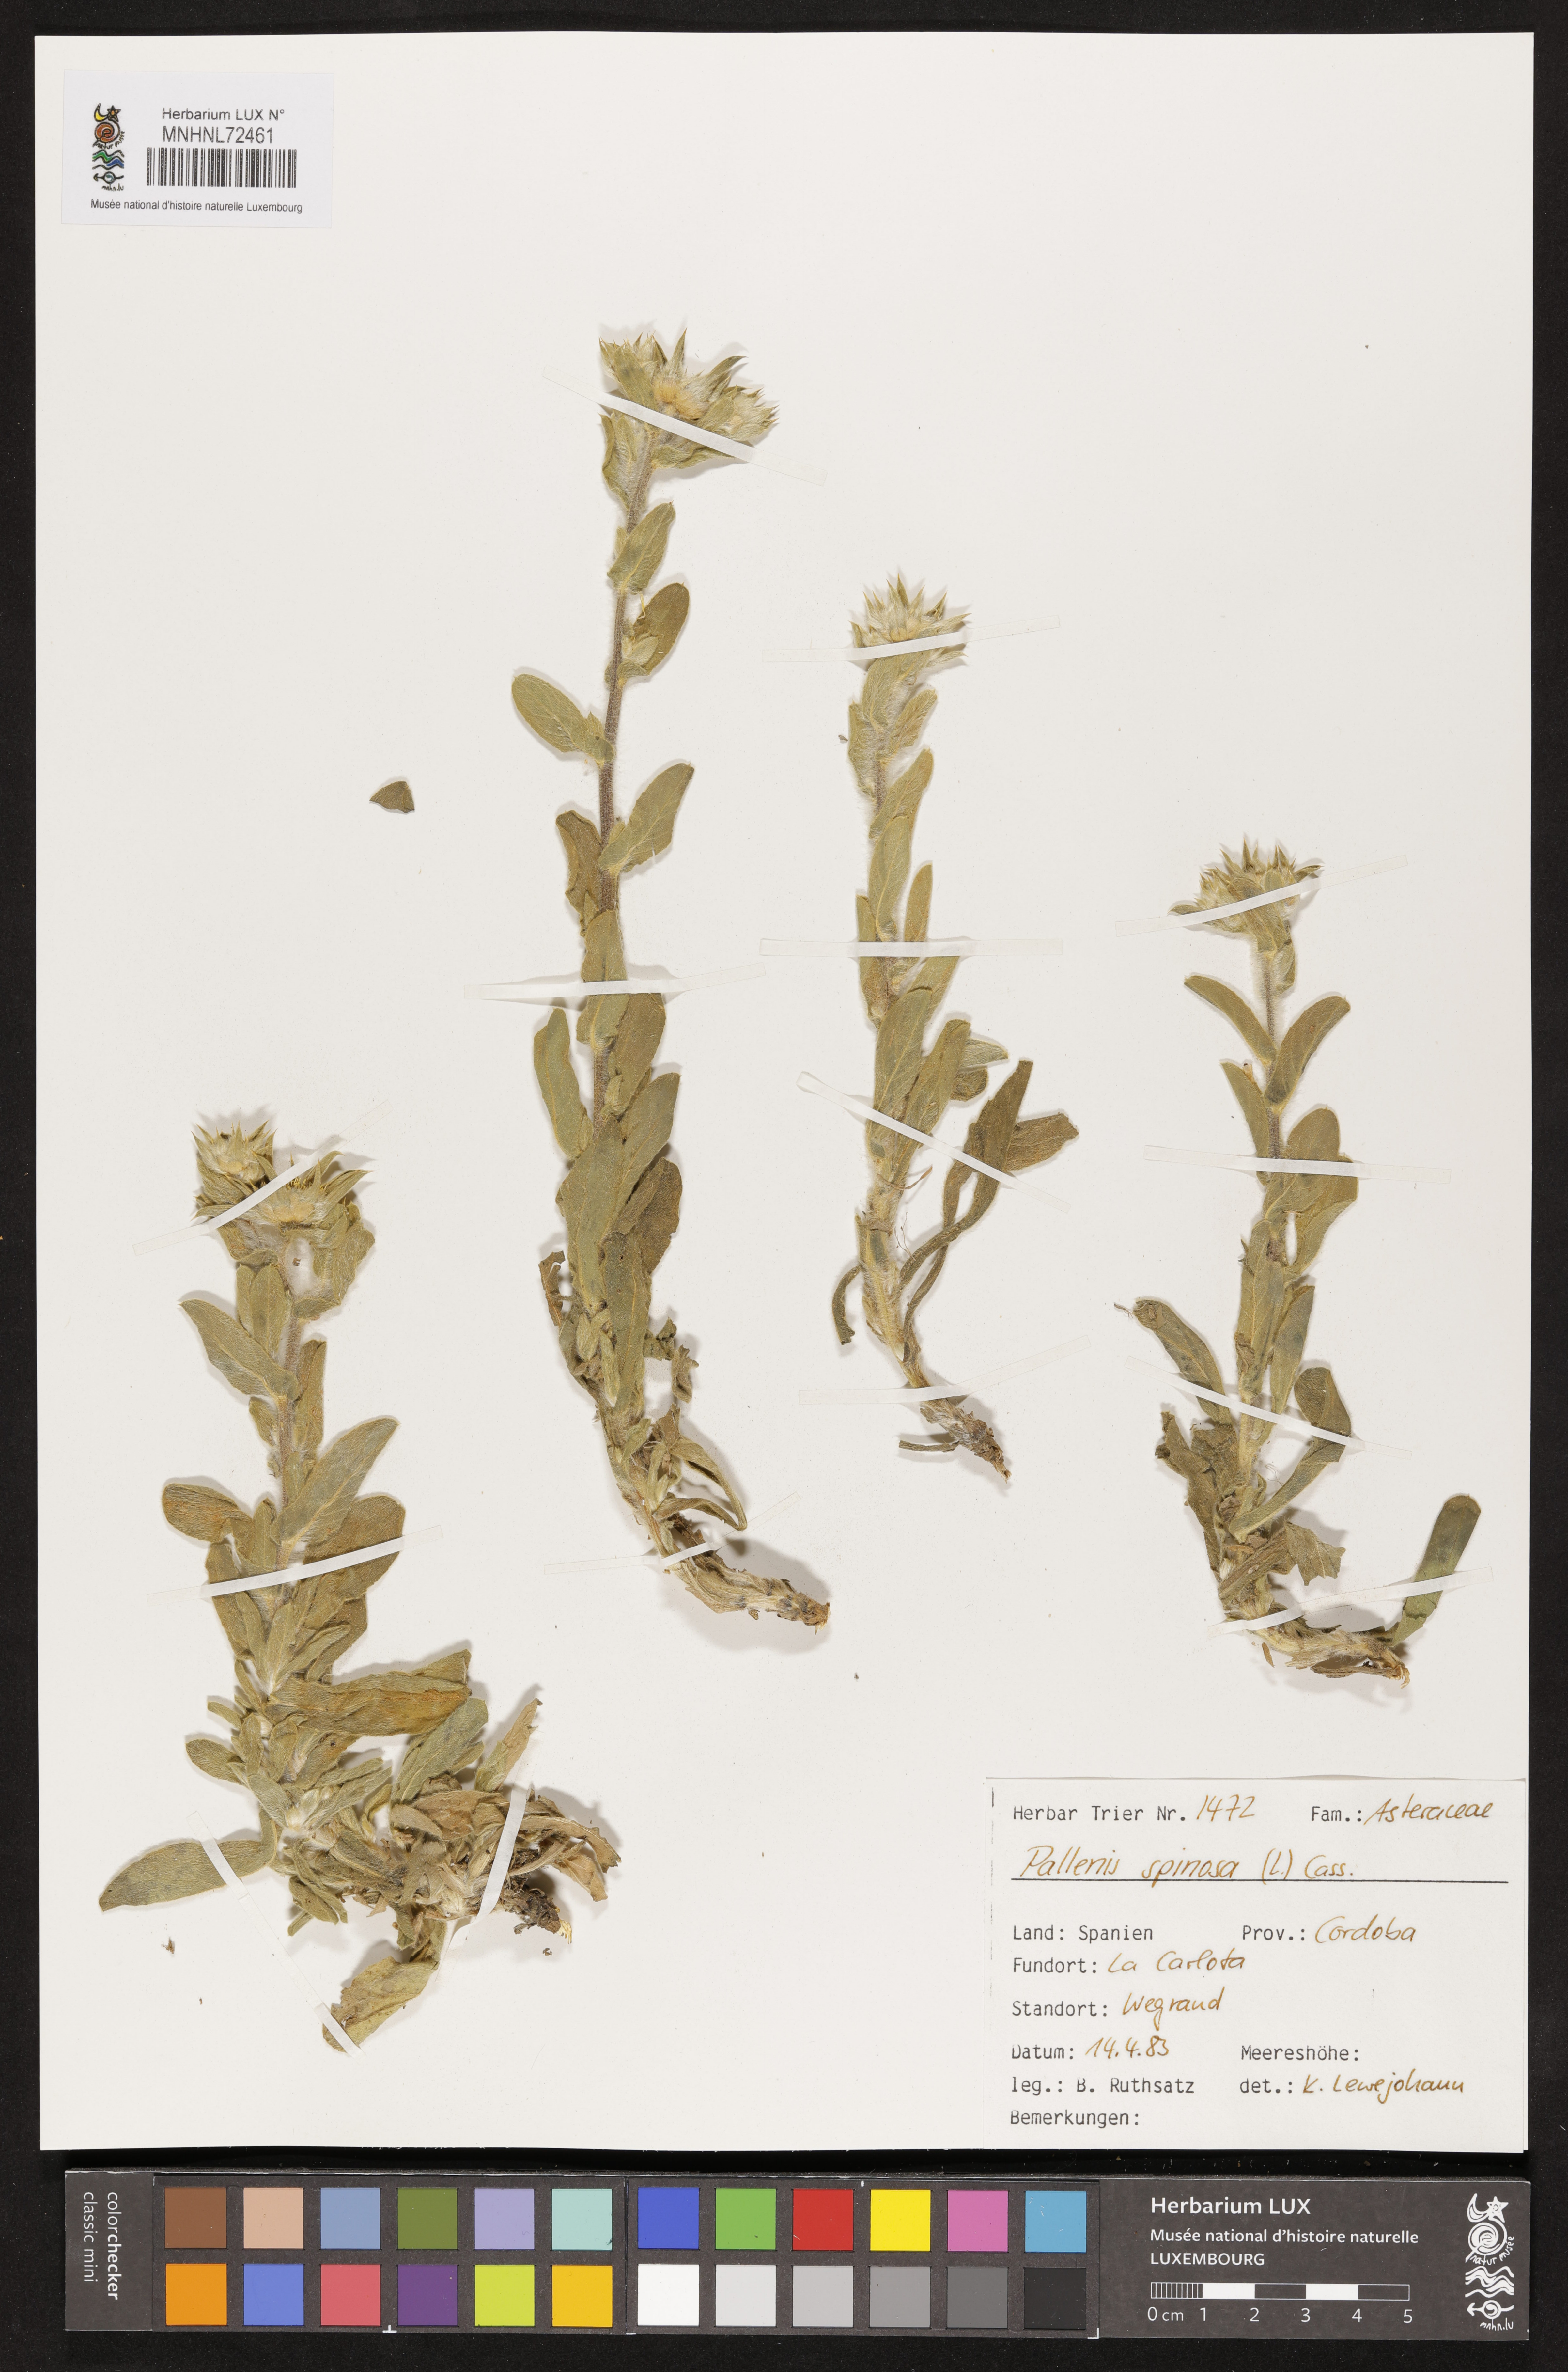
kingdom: Plantae
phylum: Tracheophyta
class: Magnoliopsida
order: Asterales
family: Asteraceae
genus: Pallenis
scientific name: Pallenis spinosa
